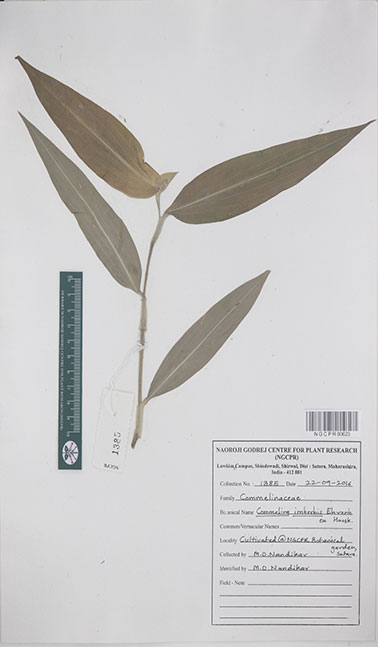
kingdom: Plantae
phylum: Tracheophyta
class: Liliopsida
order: Commelinales
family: Commelinaceae
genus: Commelina
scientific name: Commelina imberbis
